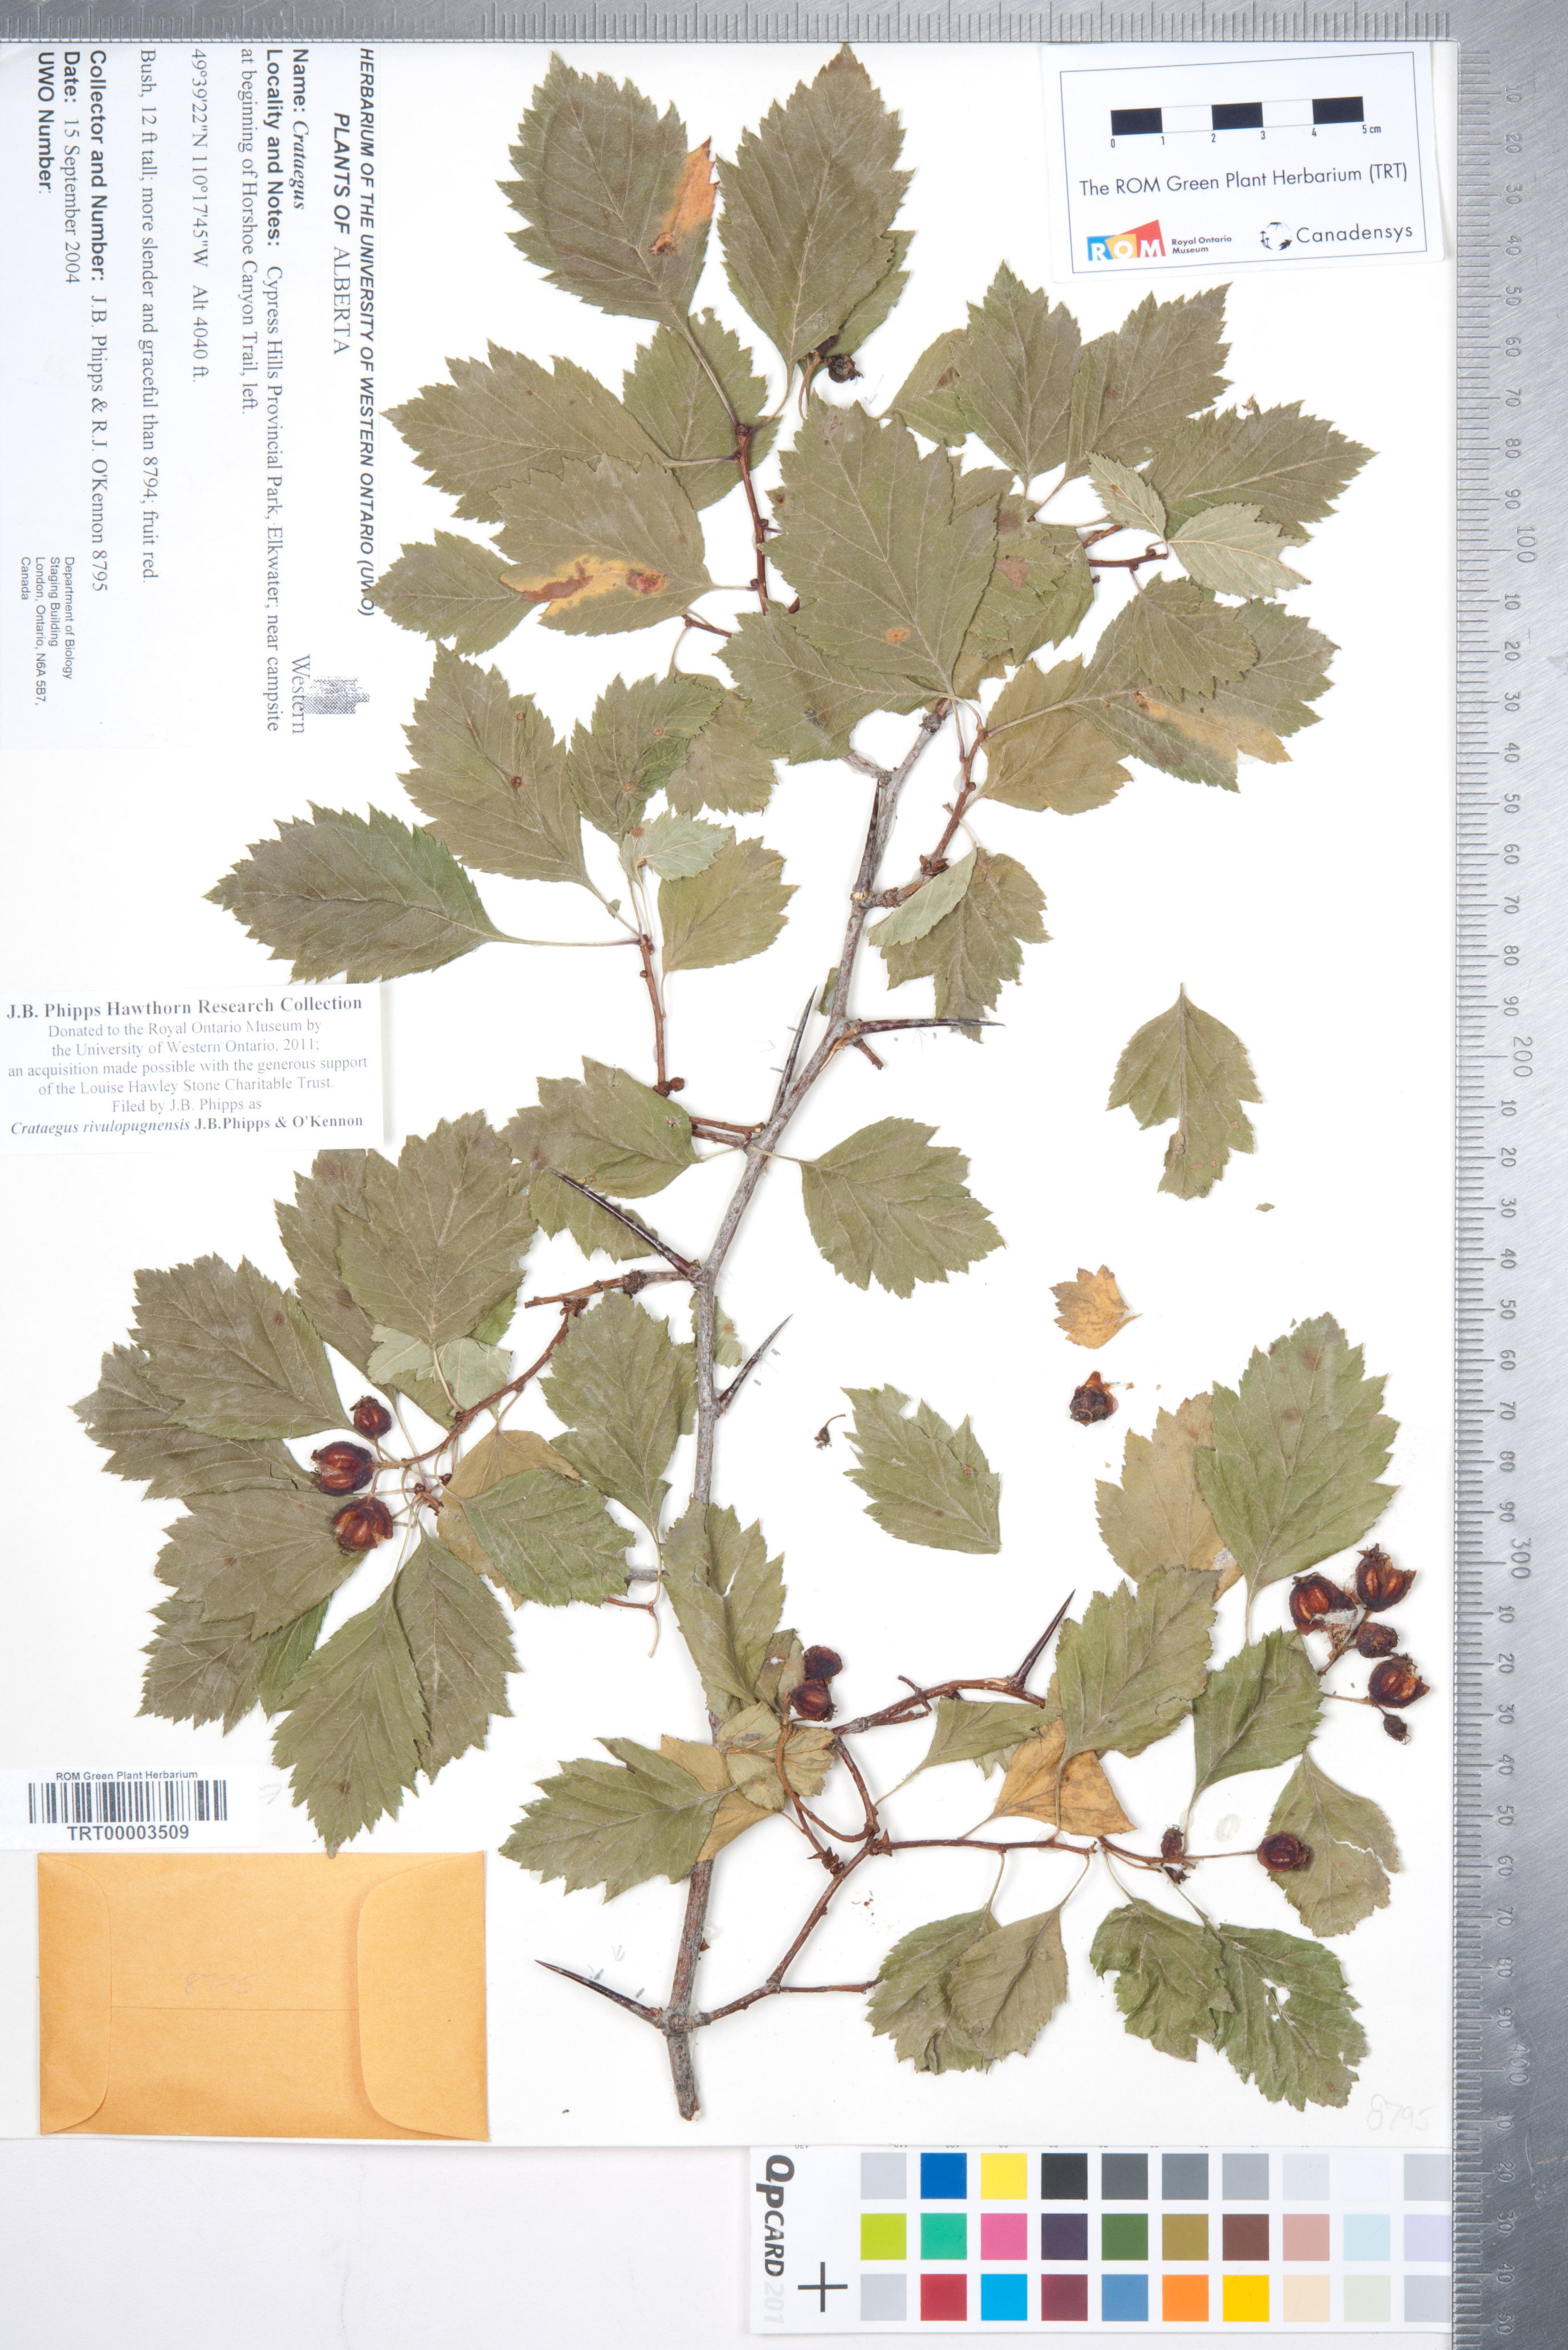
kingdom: Plantae
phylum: Tracheophyta
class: Magnoliopsida
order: Rosales
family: Rosaceae
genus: Crataegus
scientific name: Crataegus rivulopugnensis
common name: Battle creek hawthorn
